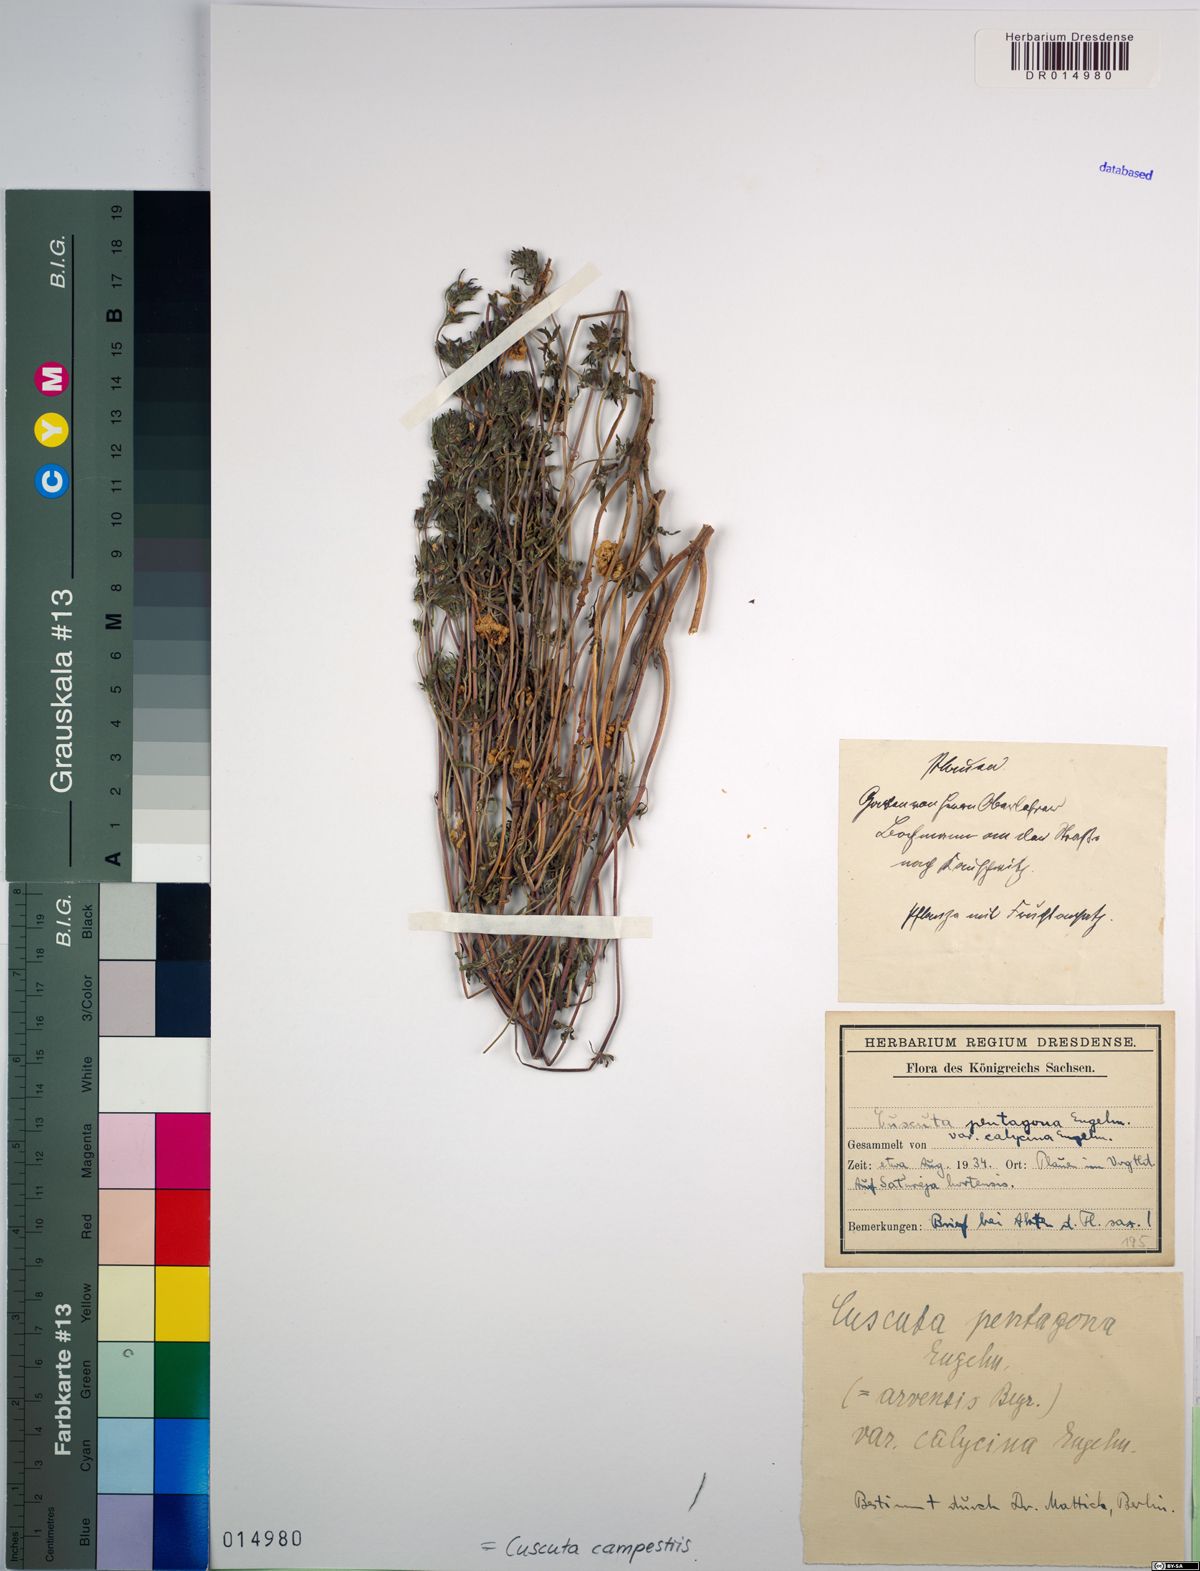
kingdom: Plantae
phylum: Tracheophyta
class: Magnoliopsida
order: Solanales
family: Convolvulaceae
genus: Cuscuta
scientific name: Cuscuta campestris
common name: Yellow dodder
